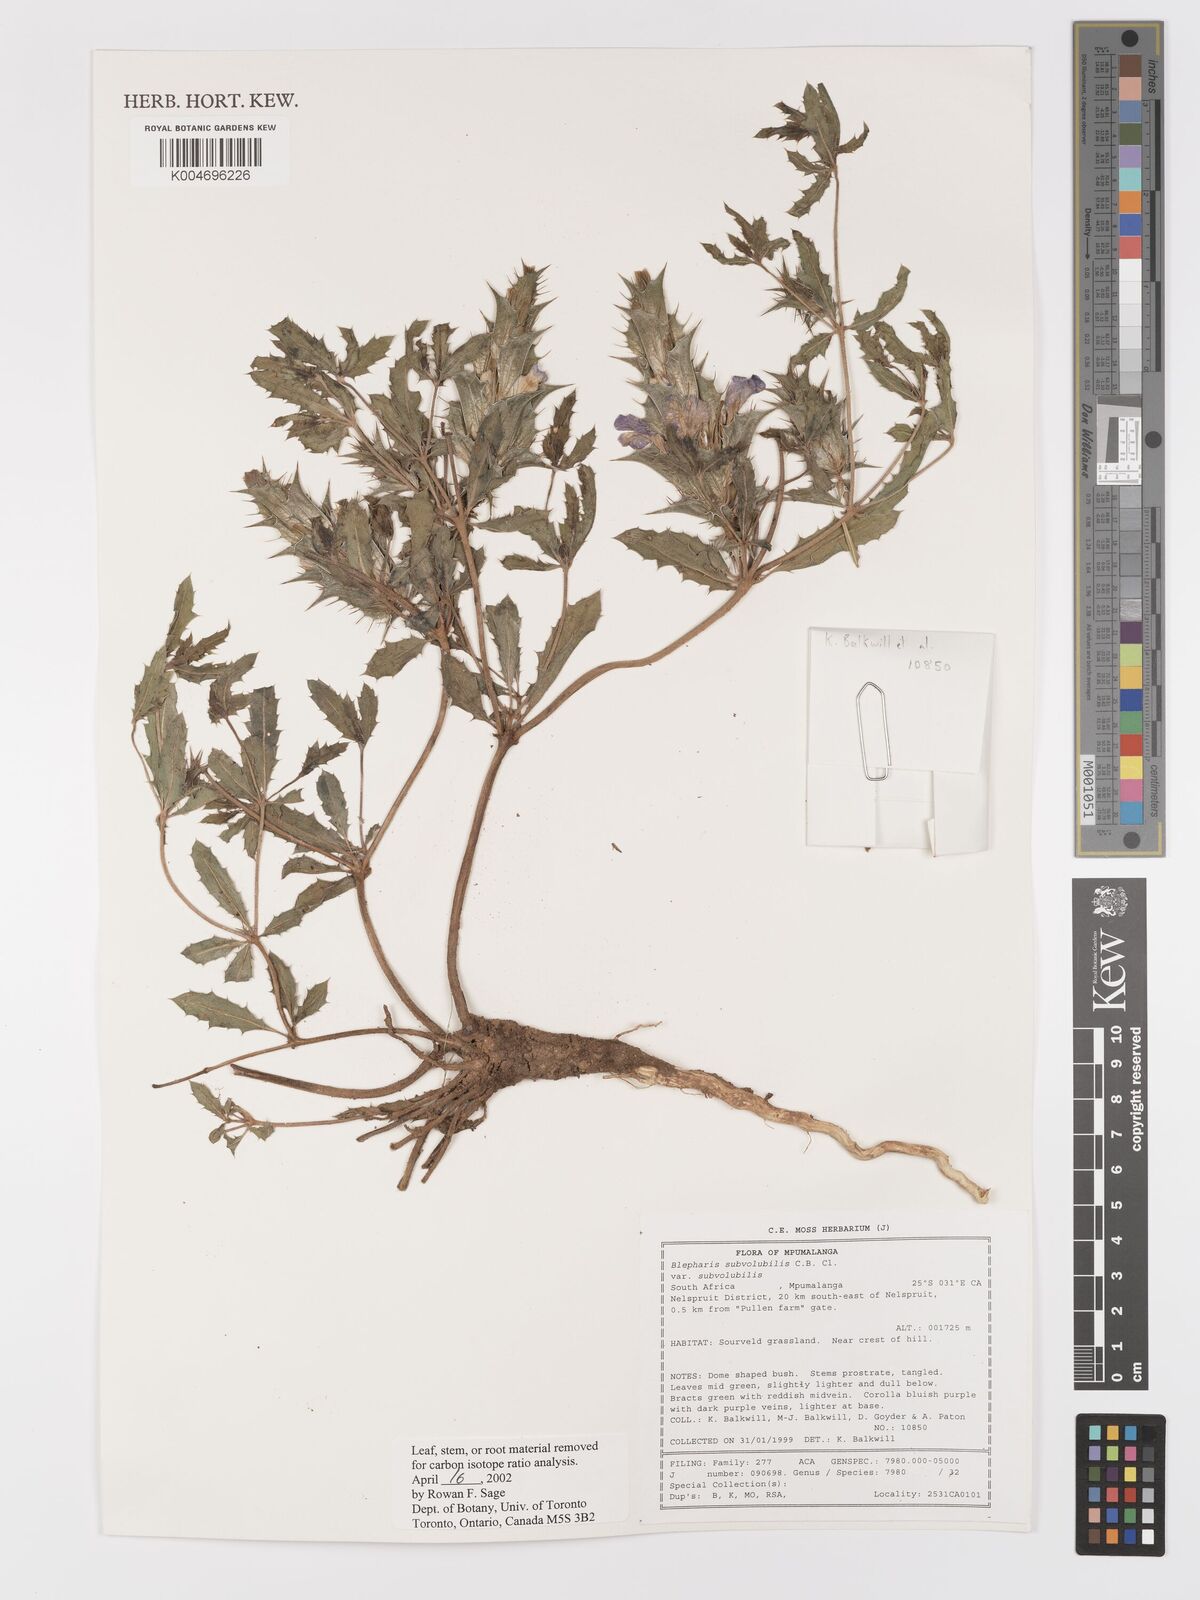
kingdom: Plantae
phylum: Tracheophyta
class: Magnoliopsida
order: Lamiales
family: Acanthaceae
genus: Blepharis
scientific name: Blepharis subvolubilis
